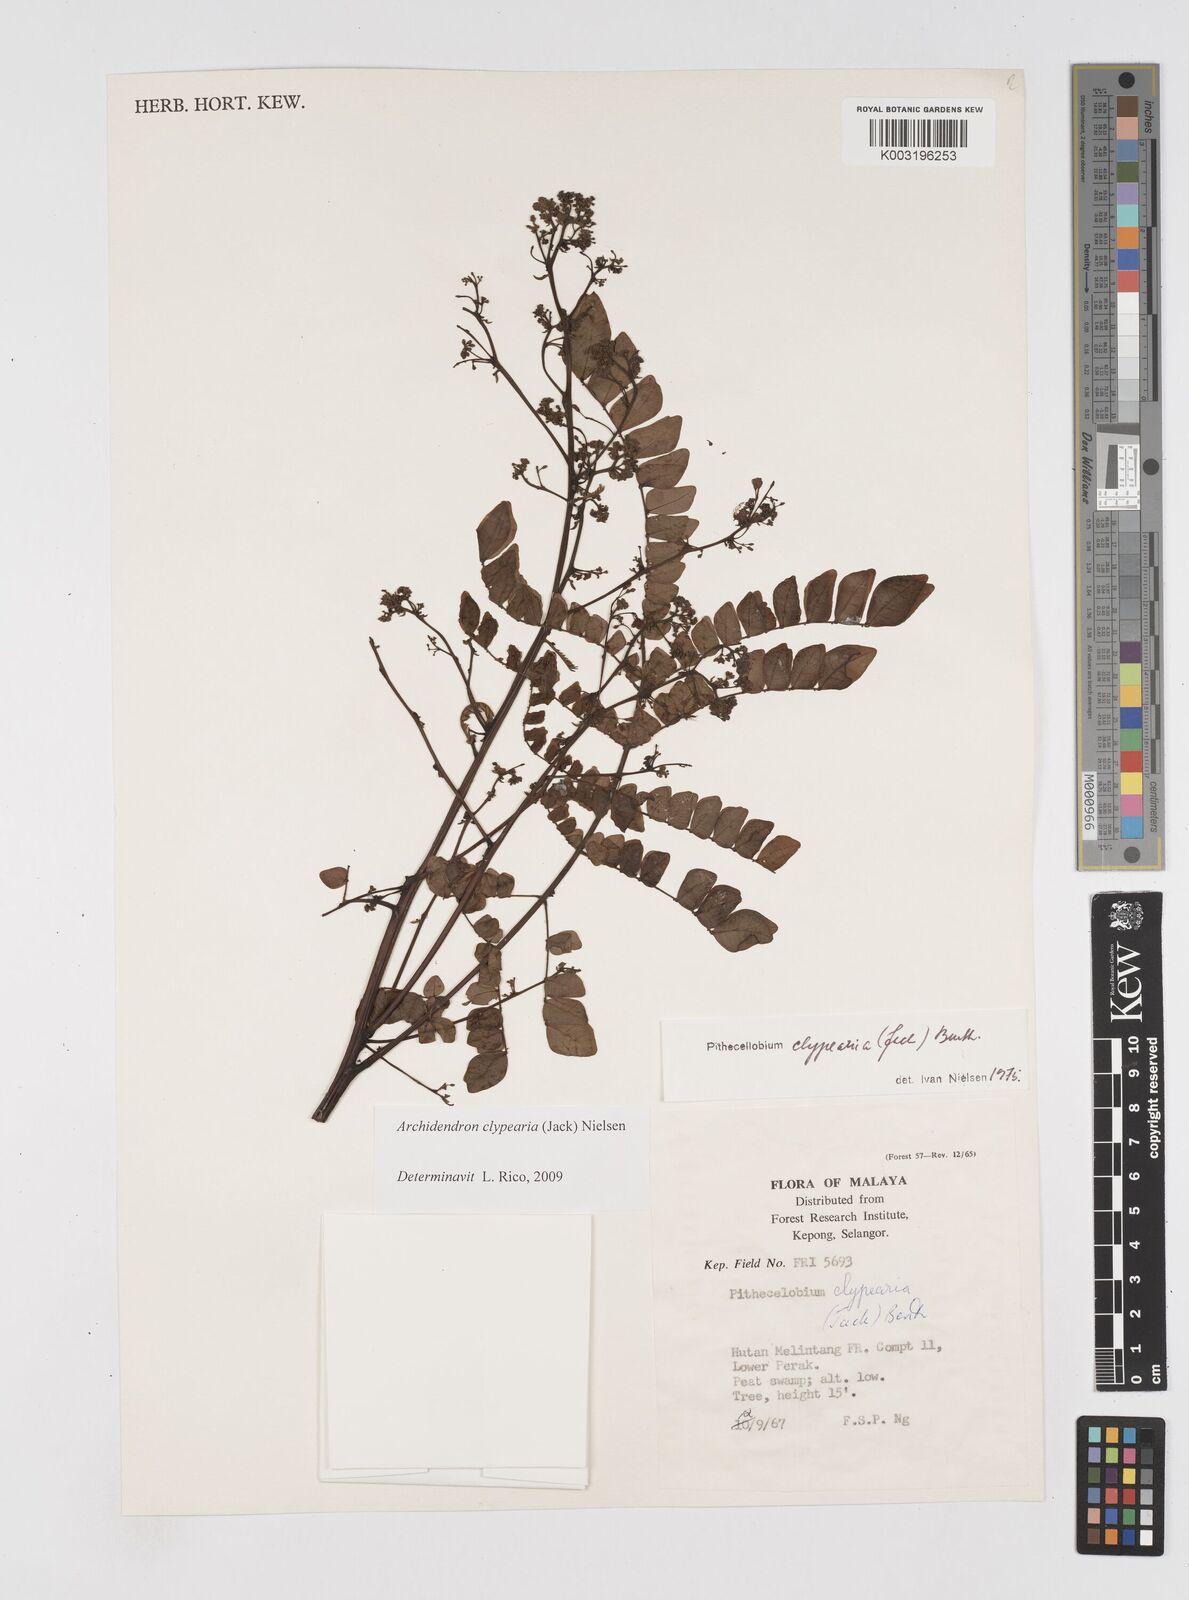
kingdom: Plantae
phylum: Tracheophyta
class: Magnoliopsida
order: Fabales
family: Fabaceae
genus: Archidendron
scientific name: Archidendron clypearia
